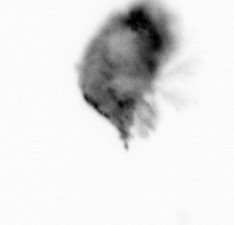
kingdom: Animalia
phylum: Arthropoda
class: Copepoda
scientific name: Copepoda
